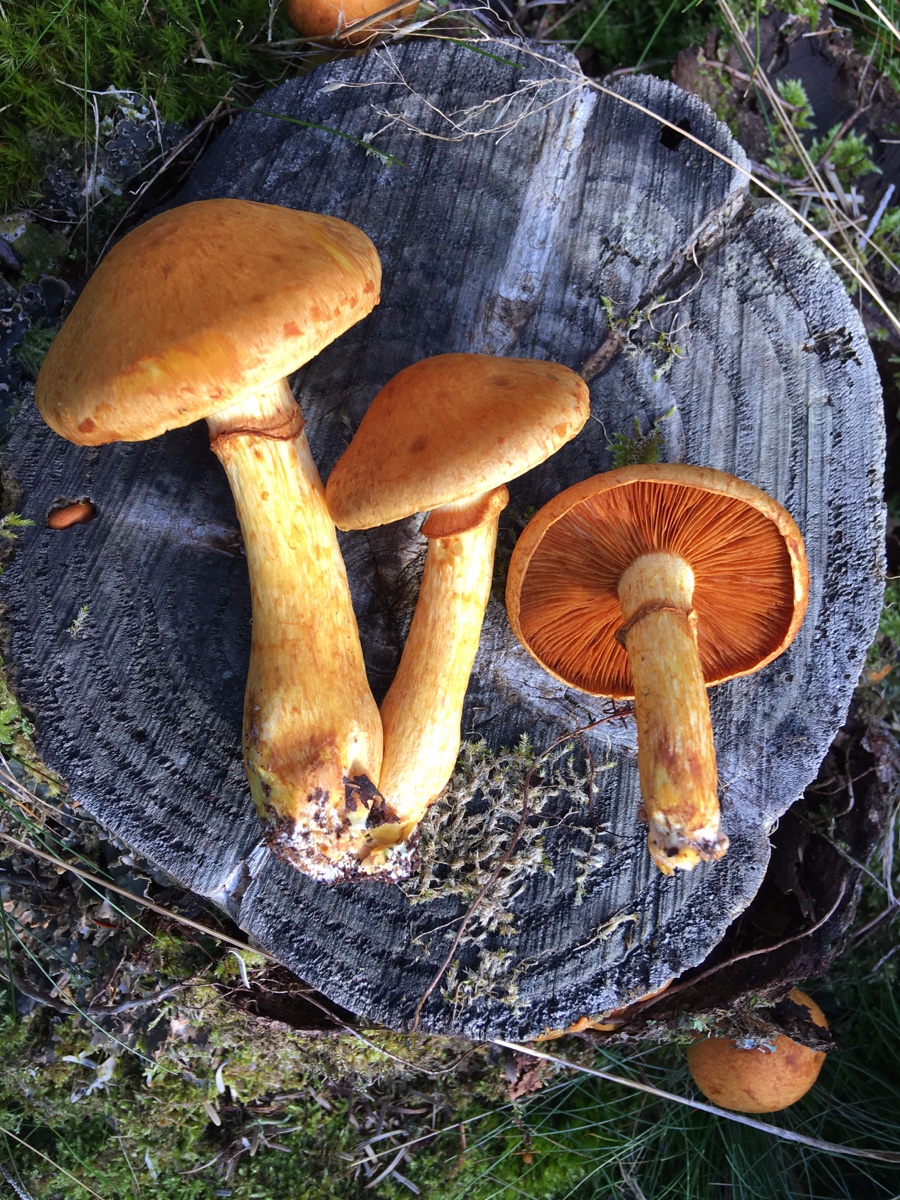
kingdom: Fungi
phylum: Basidiomycota
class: Agaricomycetes
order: Agaricales
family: Hymenogastraceae
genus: Gymnopilus
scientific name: Gymnopilus spectabilis
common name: fibret flammehat
